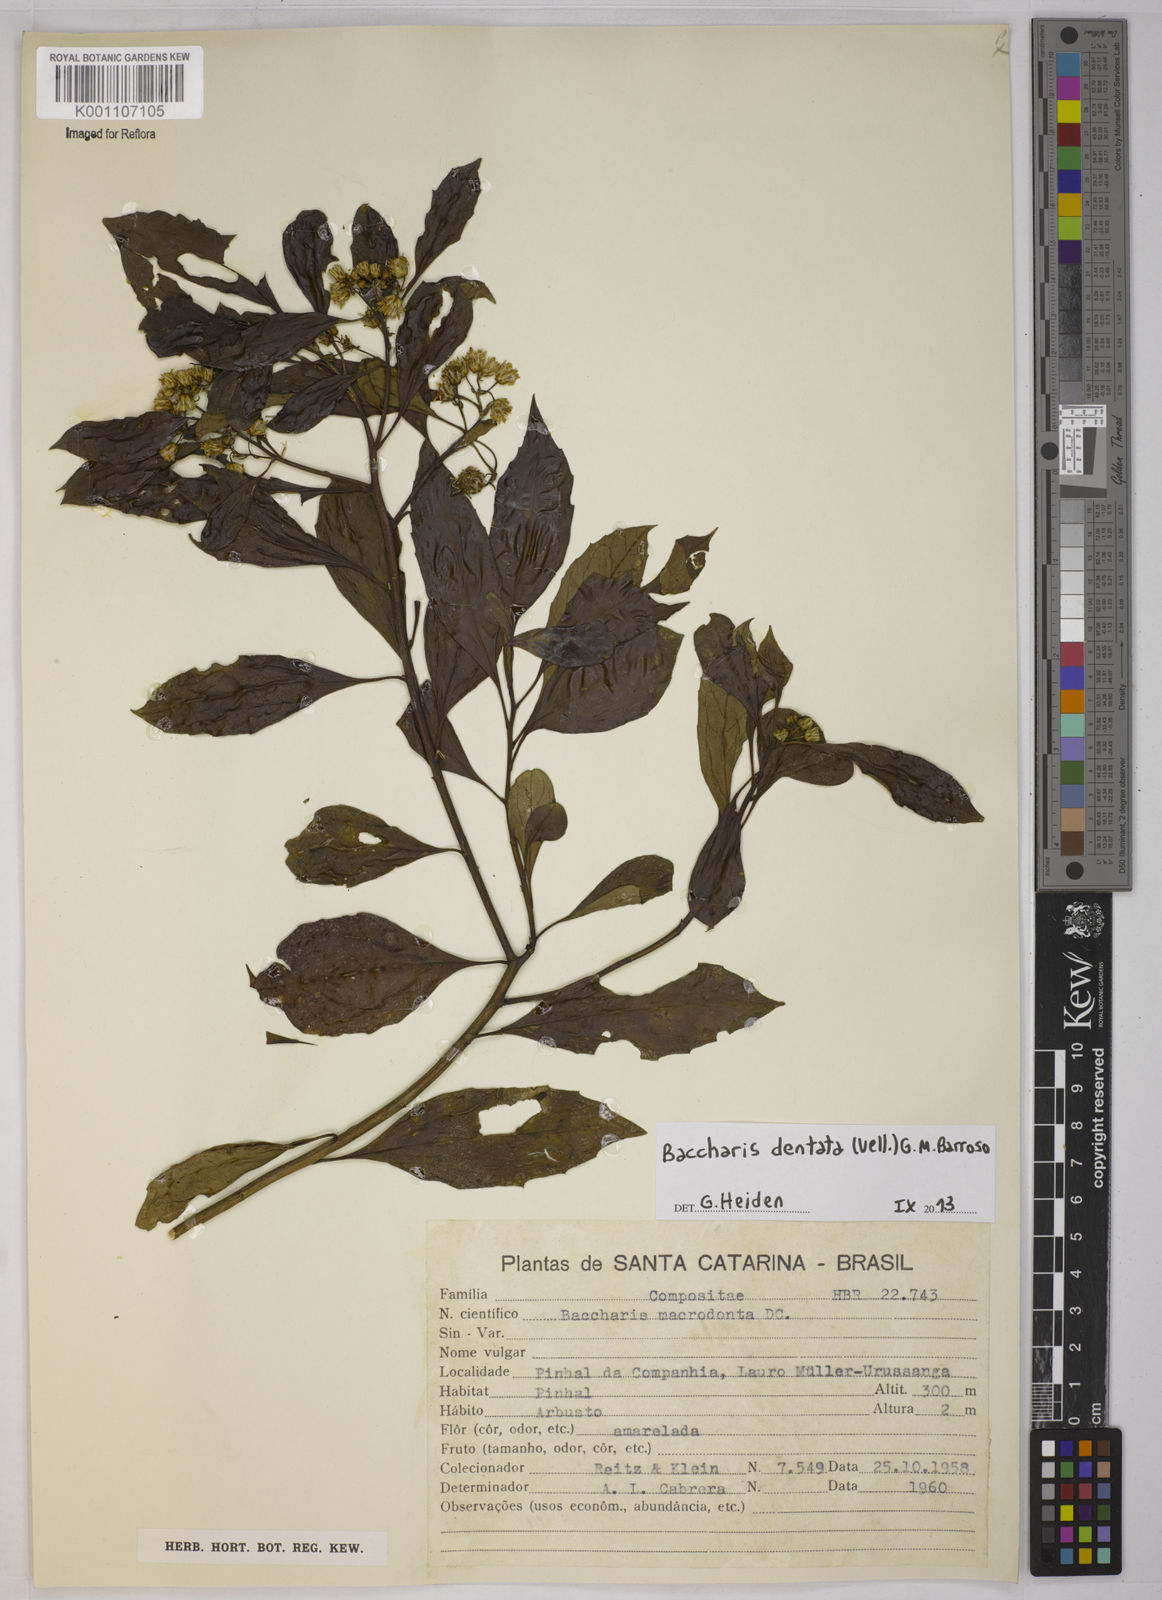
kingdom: Plantae
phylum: Tracheophyta
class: Magnoliopsida
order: Asterales
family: Asteraceae
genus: Baccharis
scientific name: Baccharis dentata
